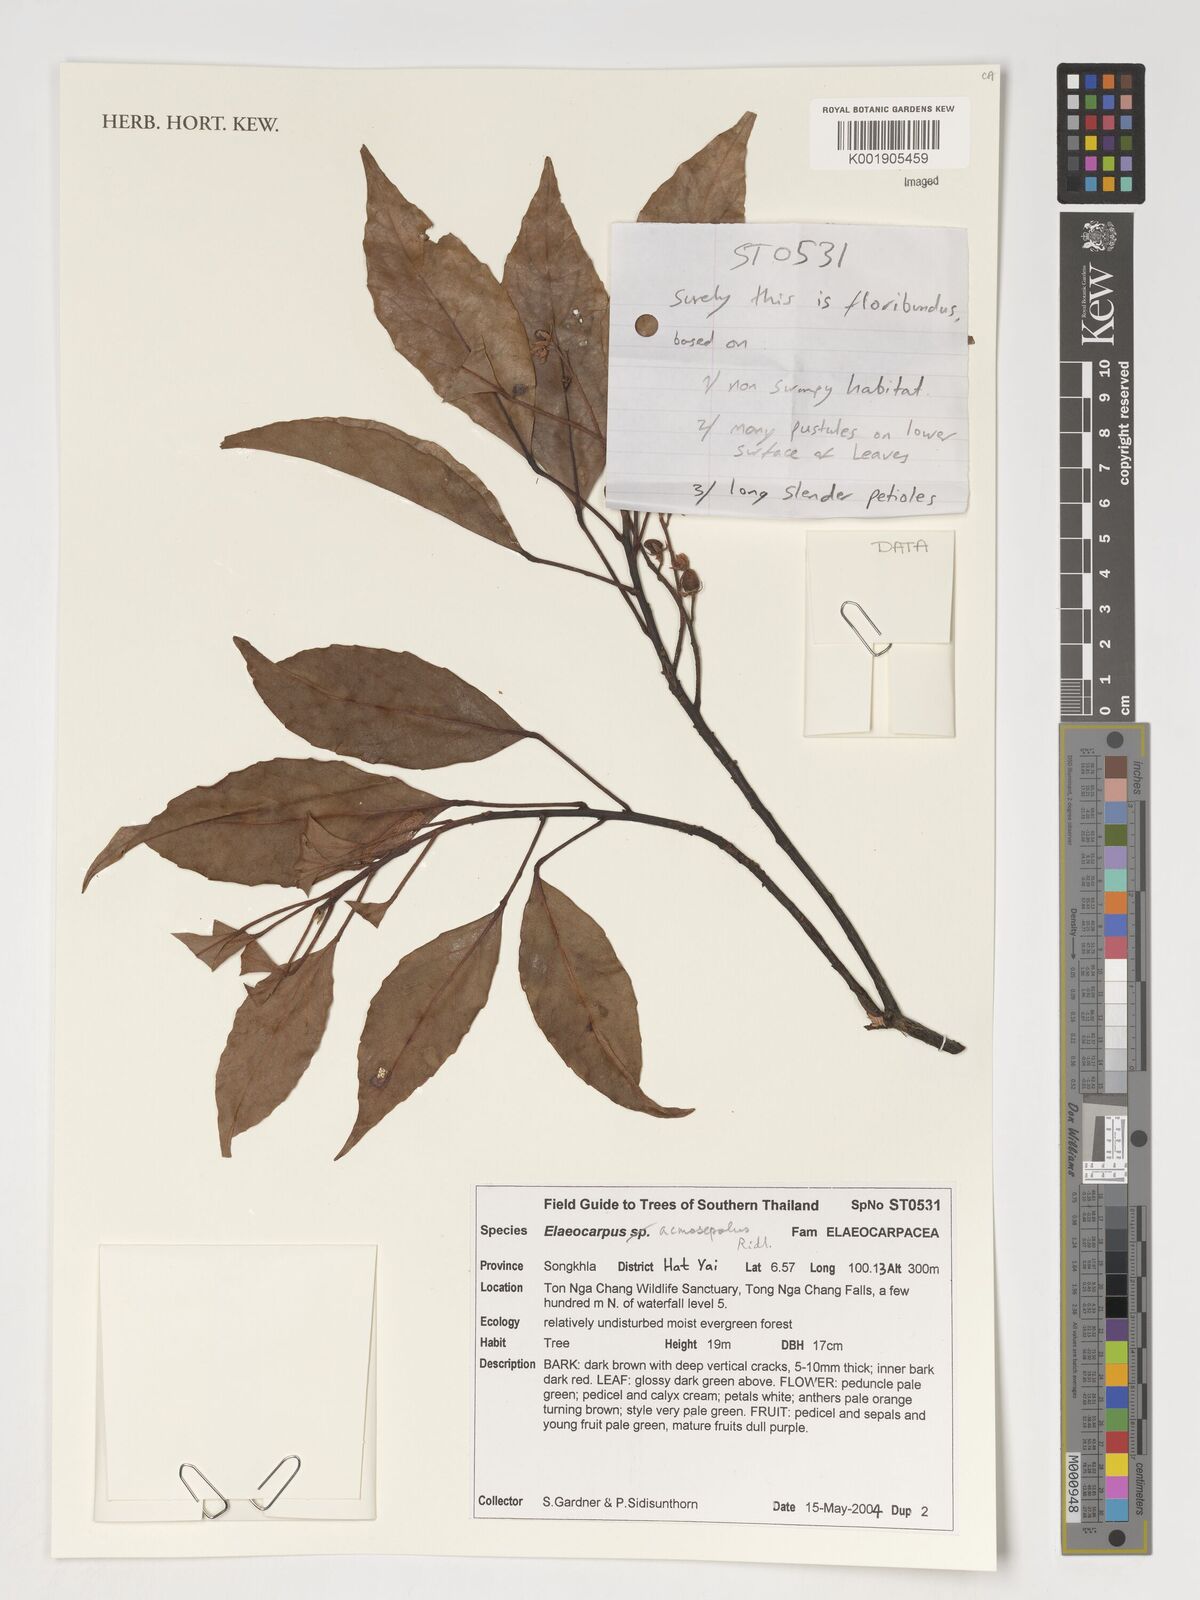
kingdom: Plantae
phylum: Tracheophyta
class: Magnoliopsida
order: Oxalidales
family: Elaeocarpaceae
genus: Elaeocarpus
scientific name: Elaeocarpus acmosepalus
